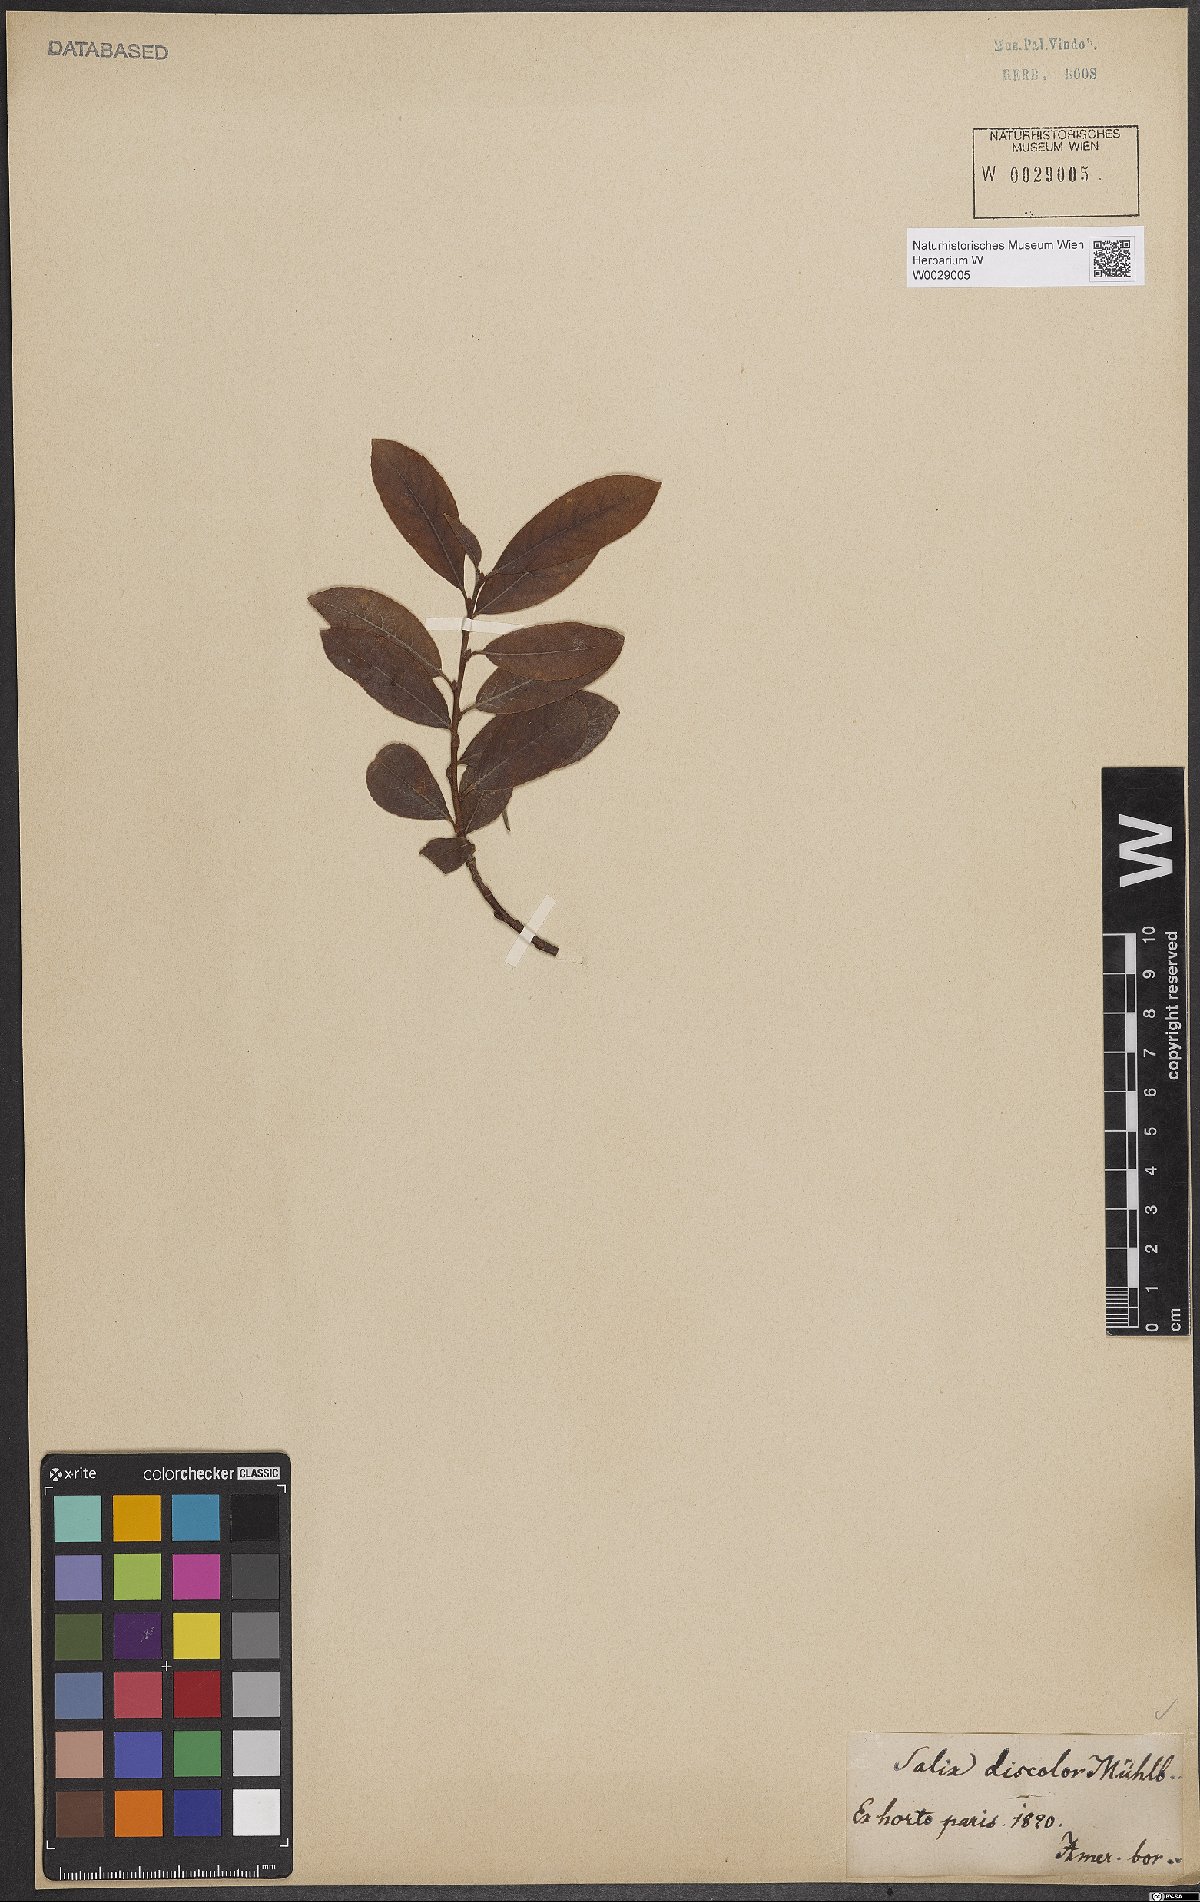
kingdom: Plantae
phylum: Tracheophyta
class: Magnoliopsida
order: Malpighiales
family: Salicaceae
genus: Salix
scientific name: Salix discolor
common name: Glaucous willow
